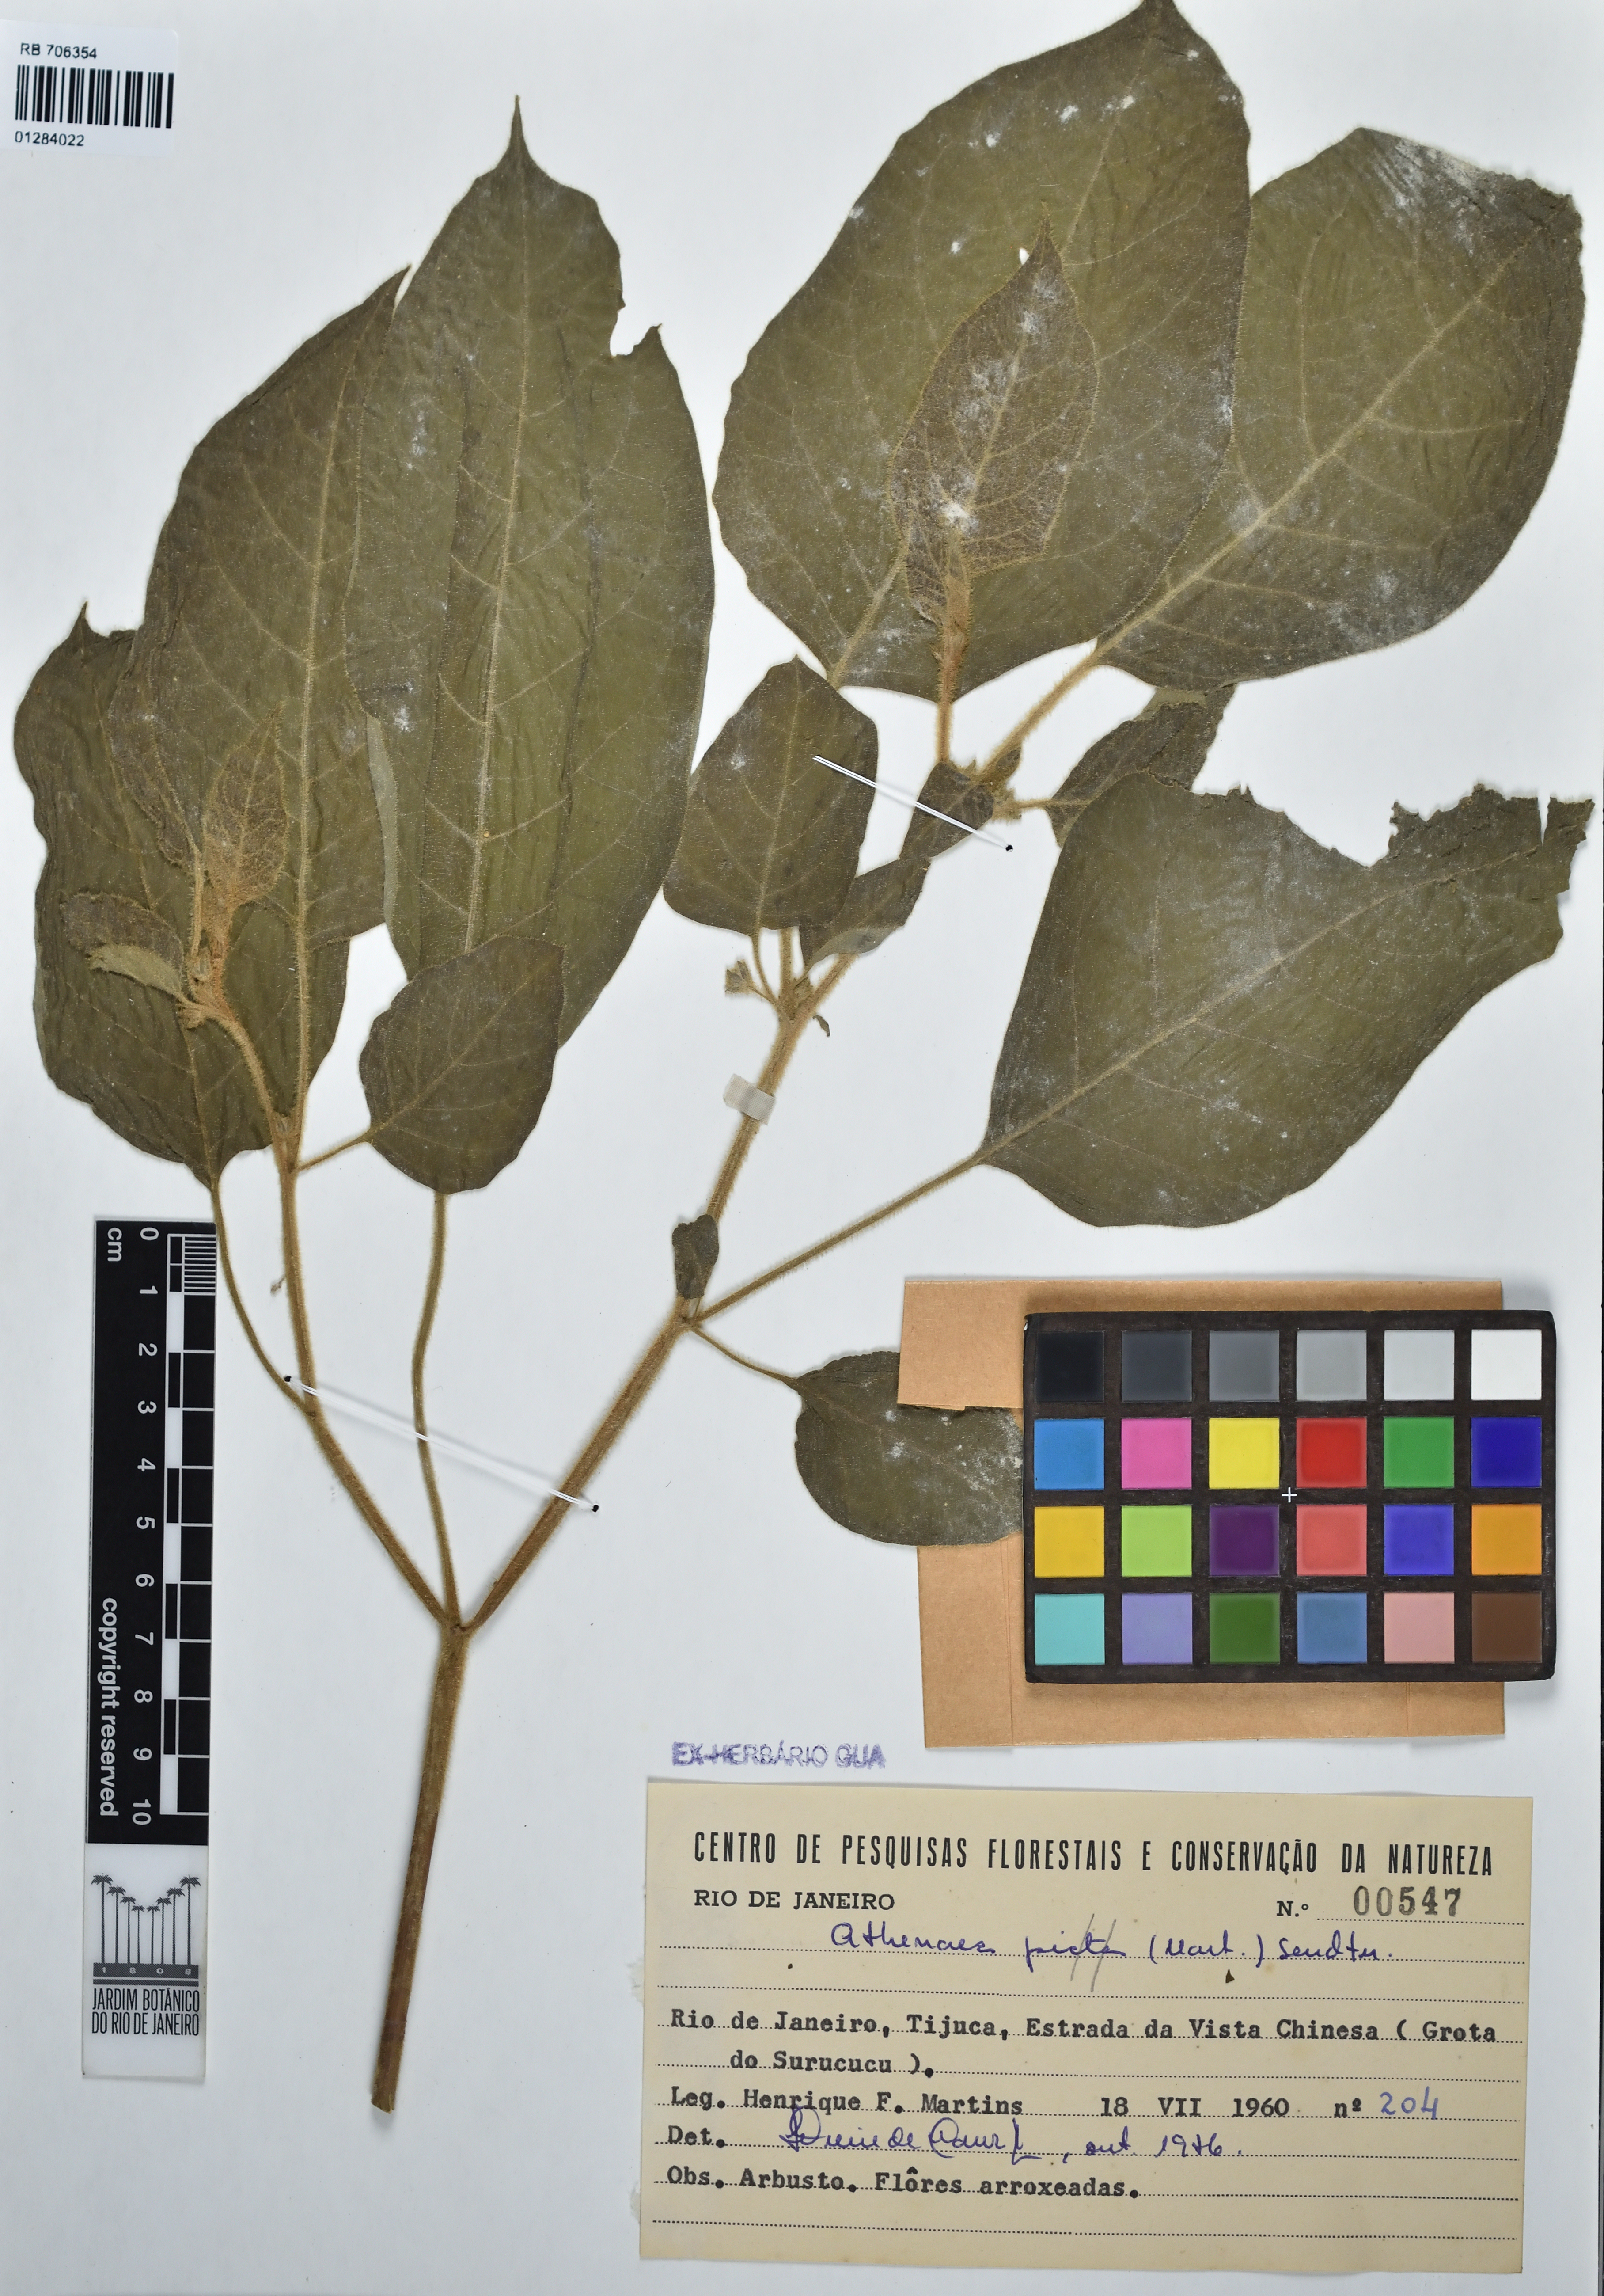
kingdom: Plantae
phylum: Tracheophyta
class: Magnoliopsida
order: Solanales
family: Solanaceae
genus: Athenaea
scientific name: Athenaea picta
